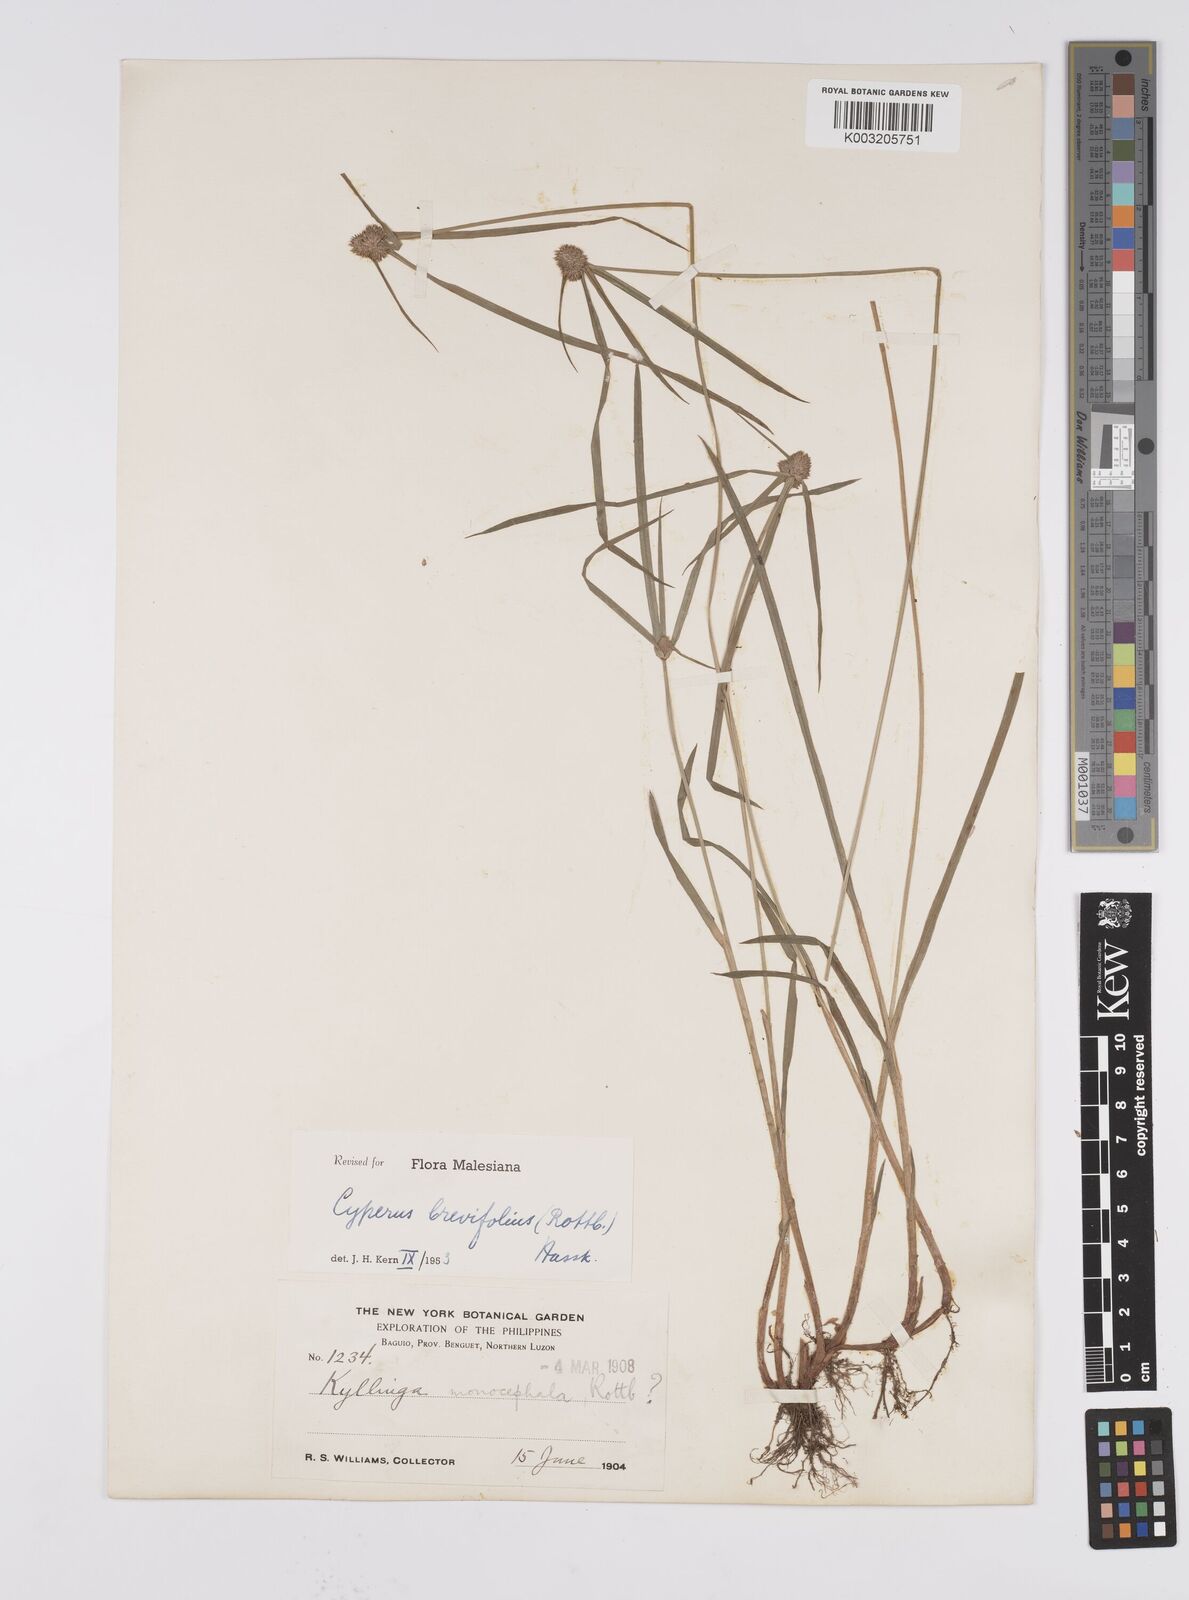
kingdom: Plantae
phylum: Tracheophyta
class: Liliopsida
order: Poales
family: Cyperaceae
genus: Cyperus
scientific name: Cyperus brevifolius
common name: Globe kyllinga
